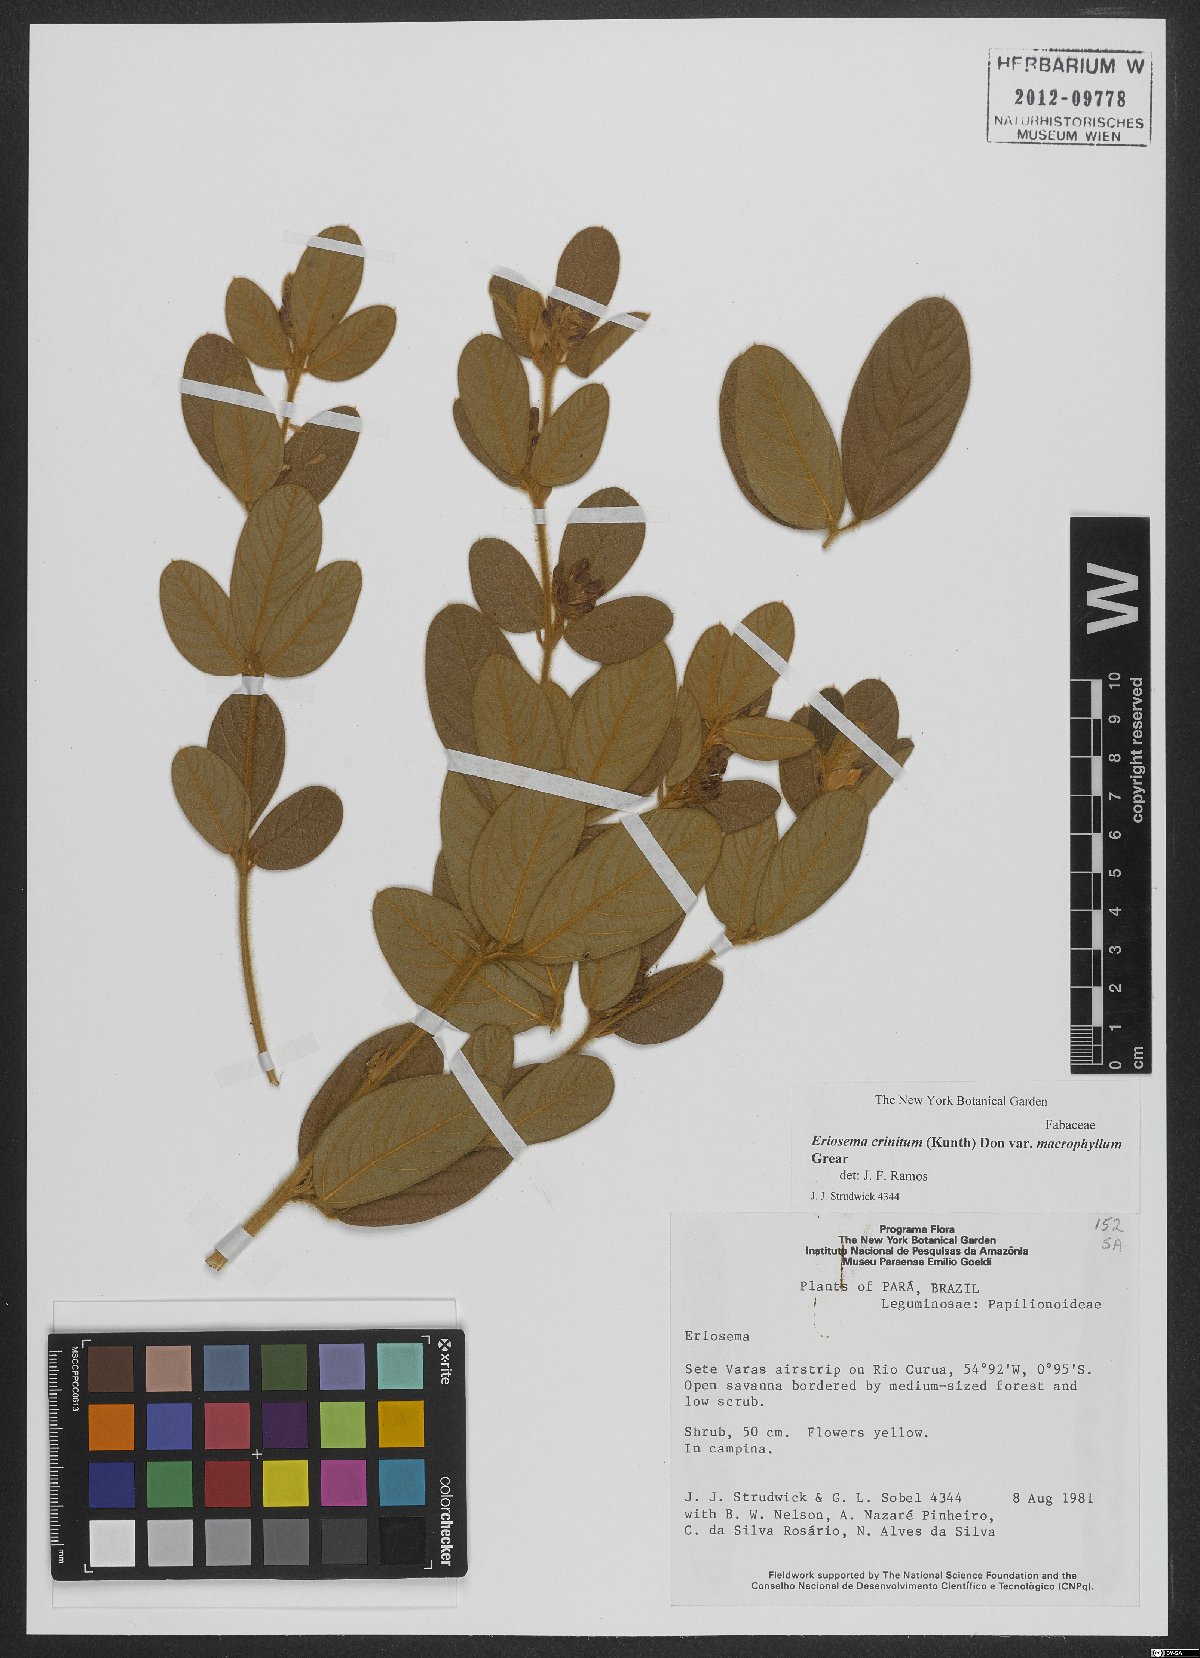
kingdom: Plantae
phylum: Tracheophyta
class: Magnoliopsida
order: Fabales
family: Fabaceae
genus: Eriosema
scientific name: Eriosema campestre
